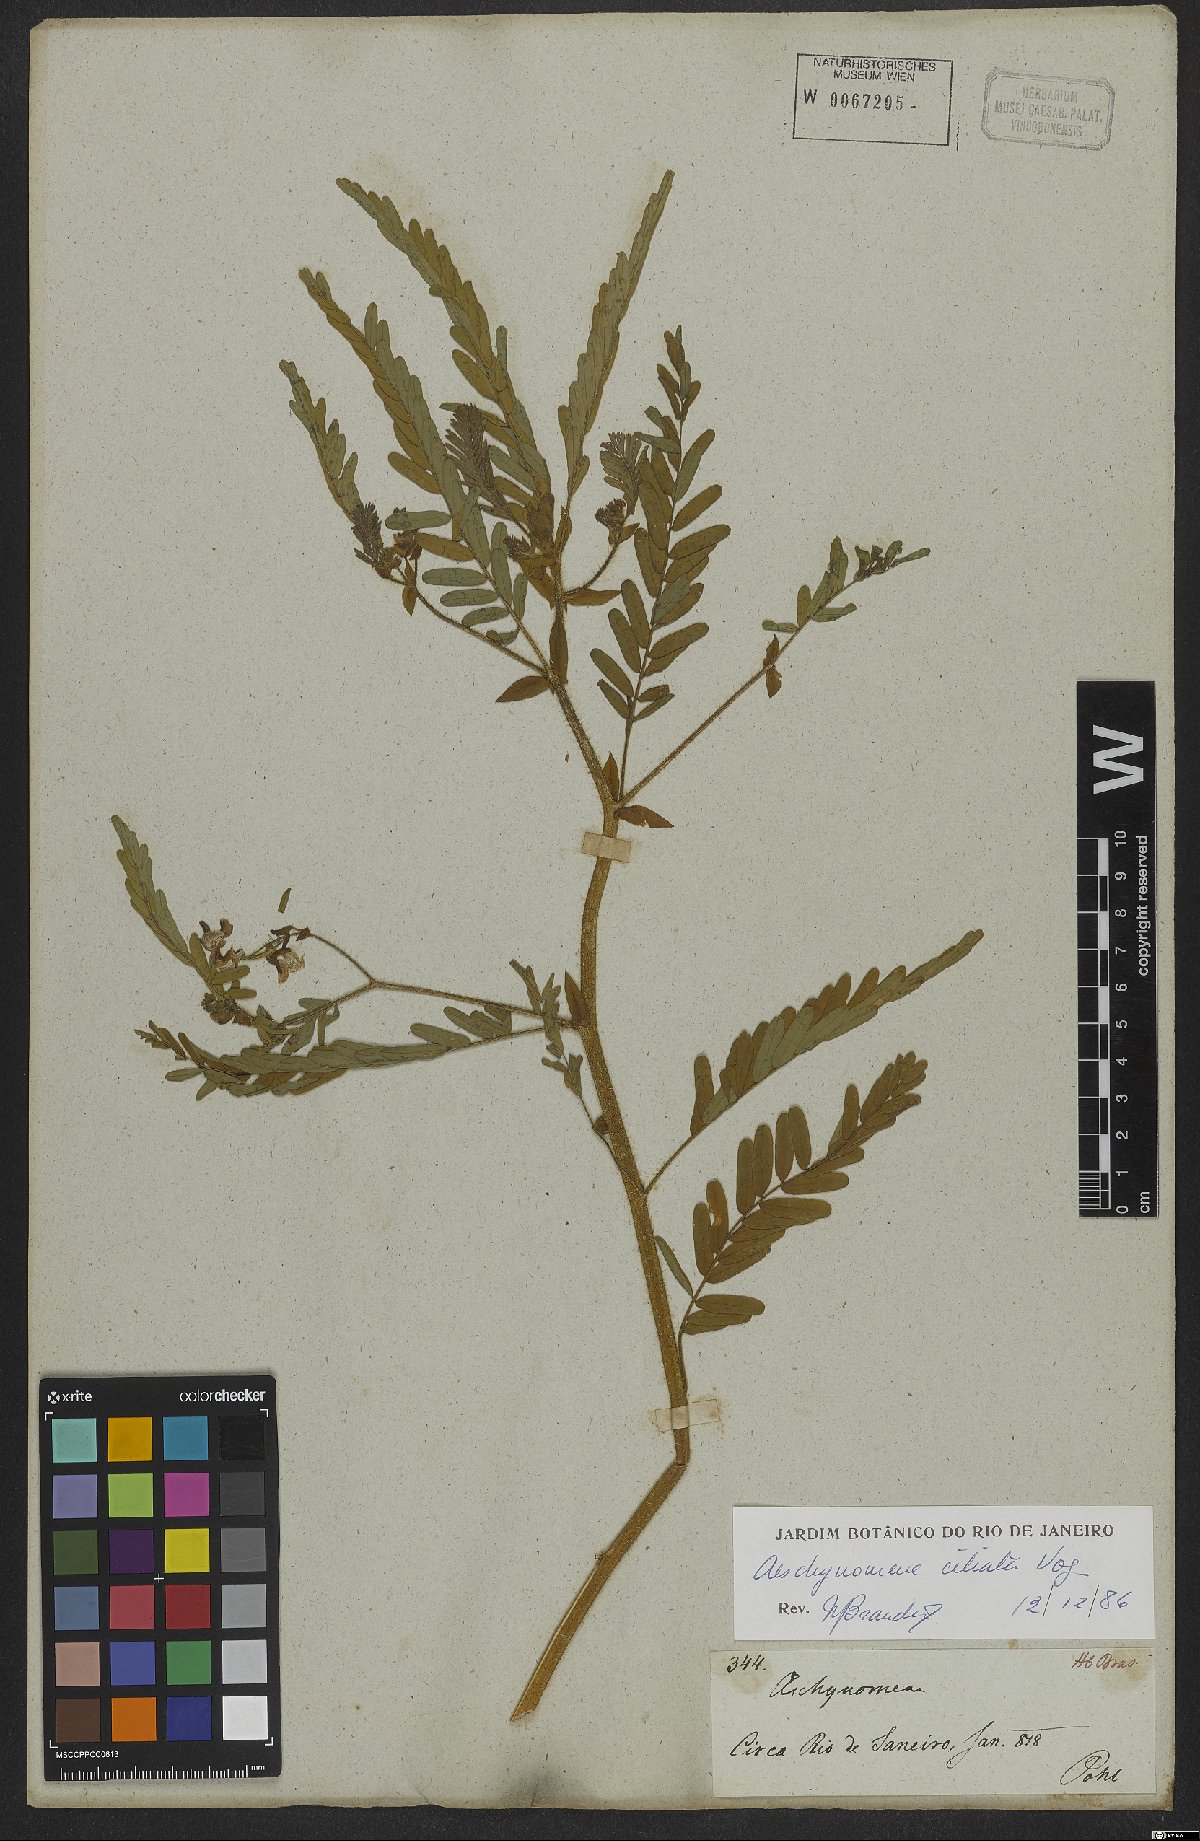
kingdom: Plantae
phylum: Tracheophyta
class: Magnoliopsida
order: Fabales
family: Fabaceae
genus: Aeschynomene
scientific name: Aeschynomene ciliata
